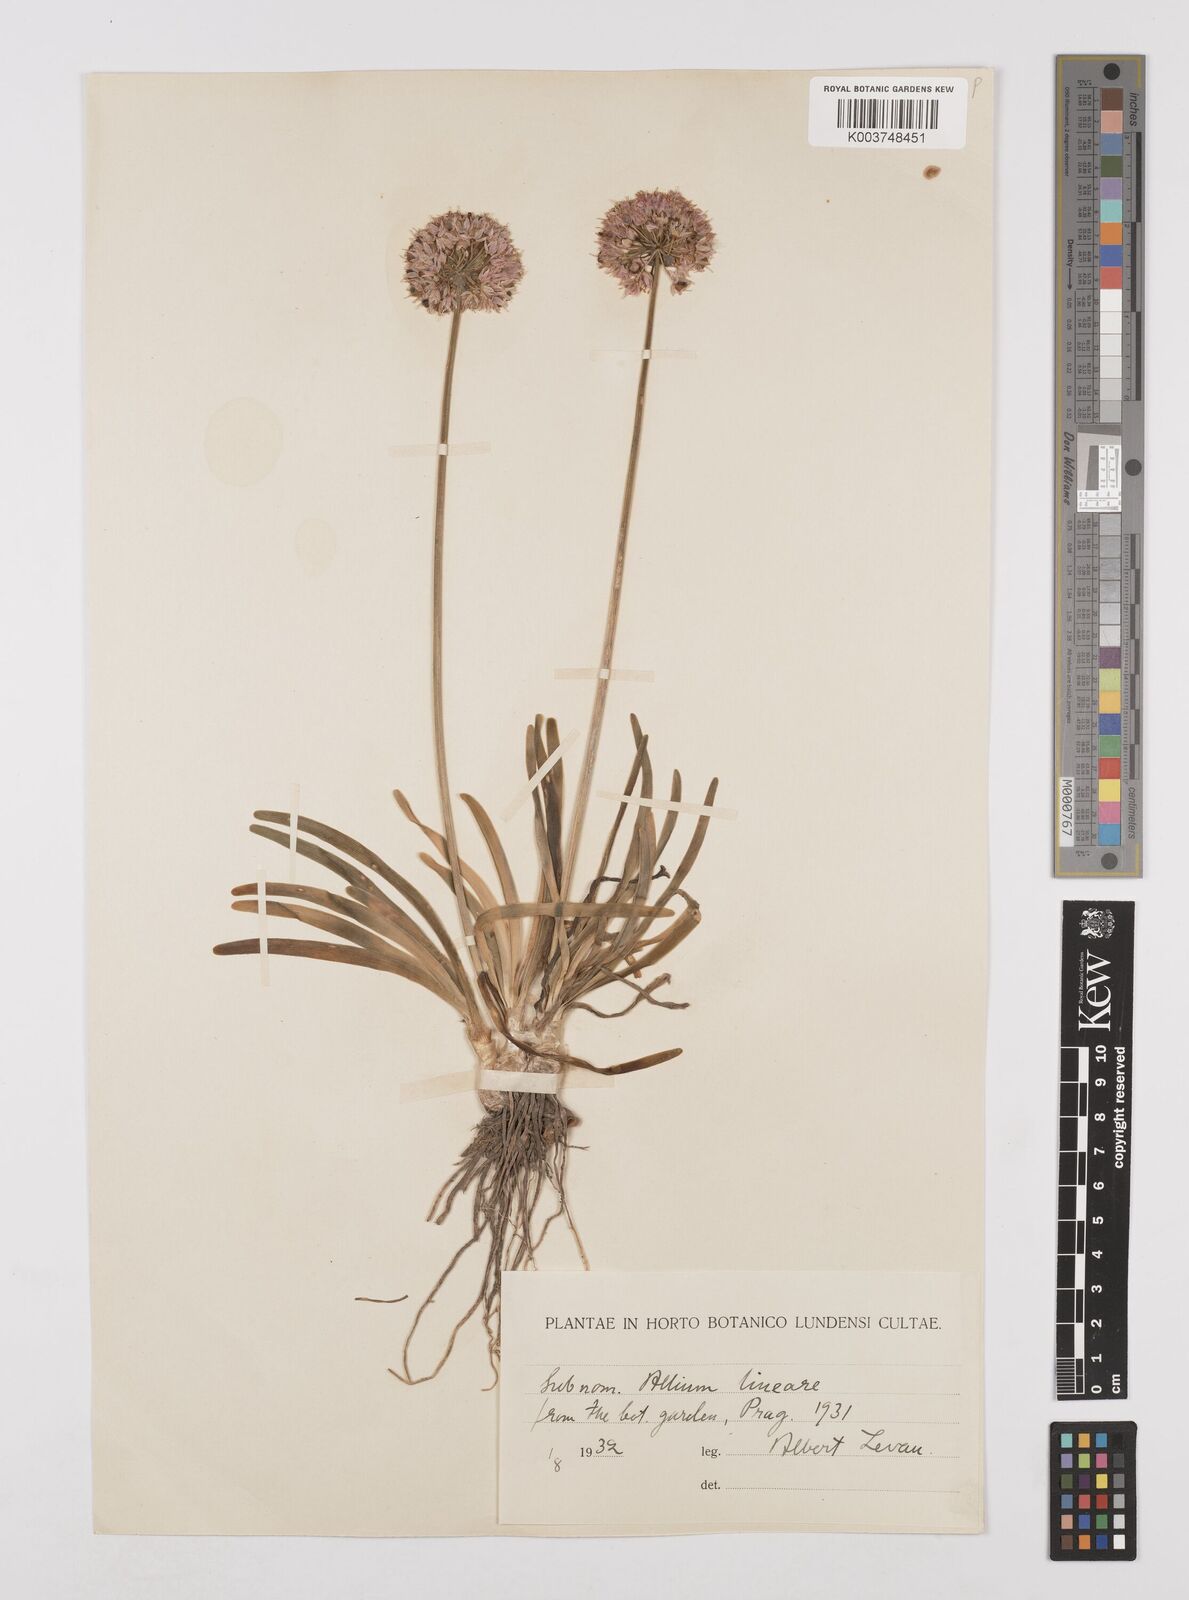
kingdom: Plantae
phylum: Tracheophyta
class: Liliopsida
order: Asparagales
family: Amaryllidaceae
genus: Allium
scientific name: Allium lineare
